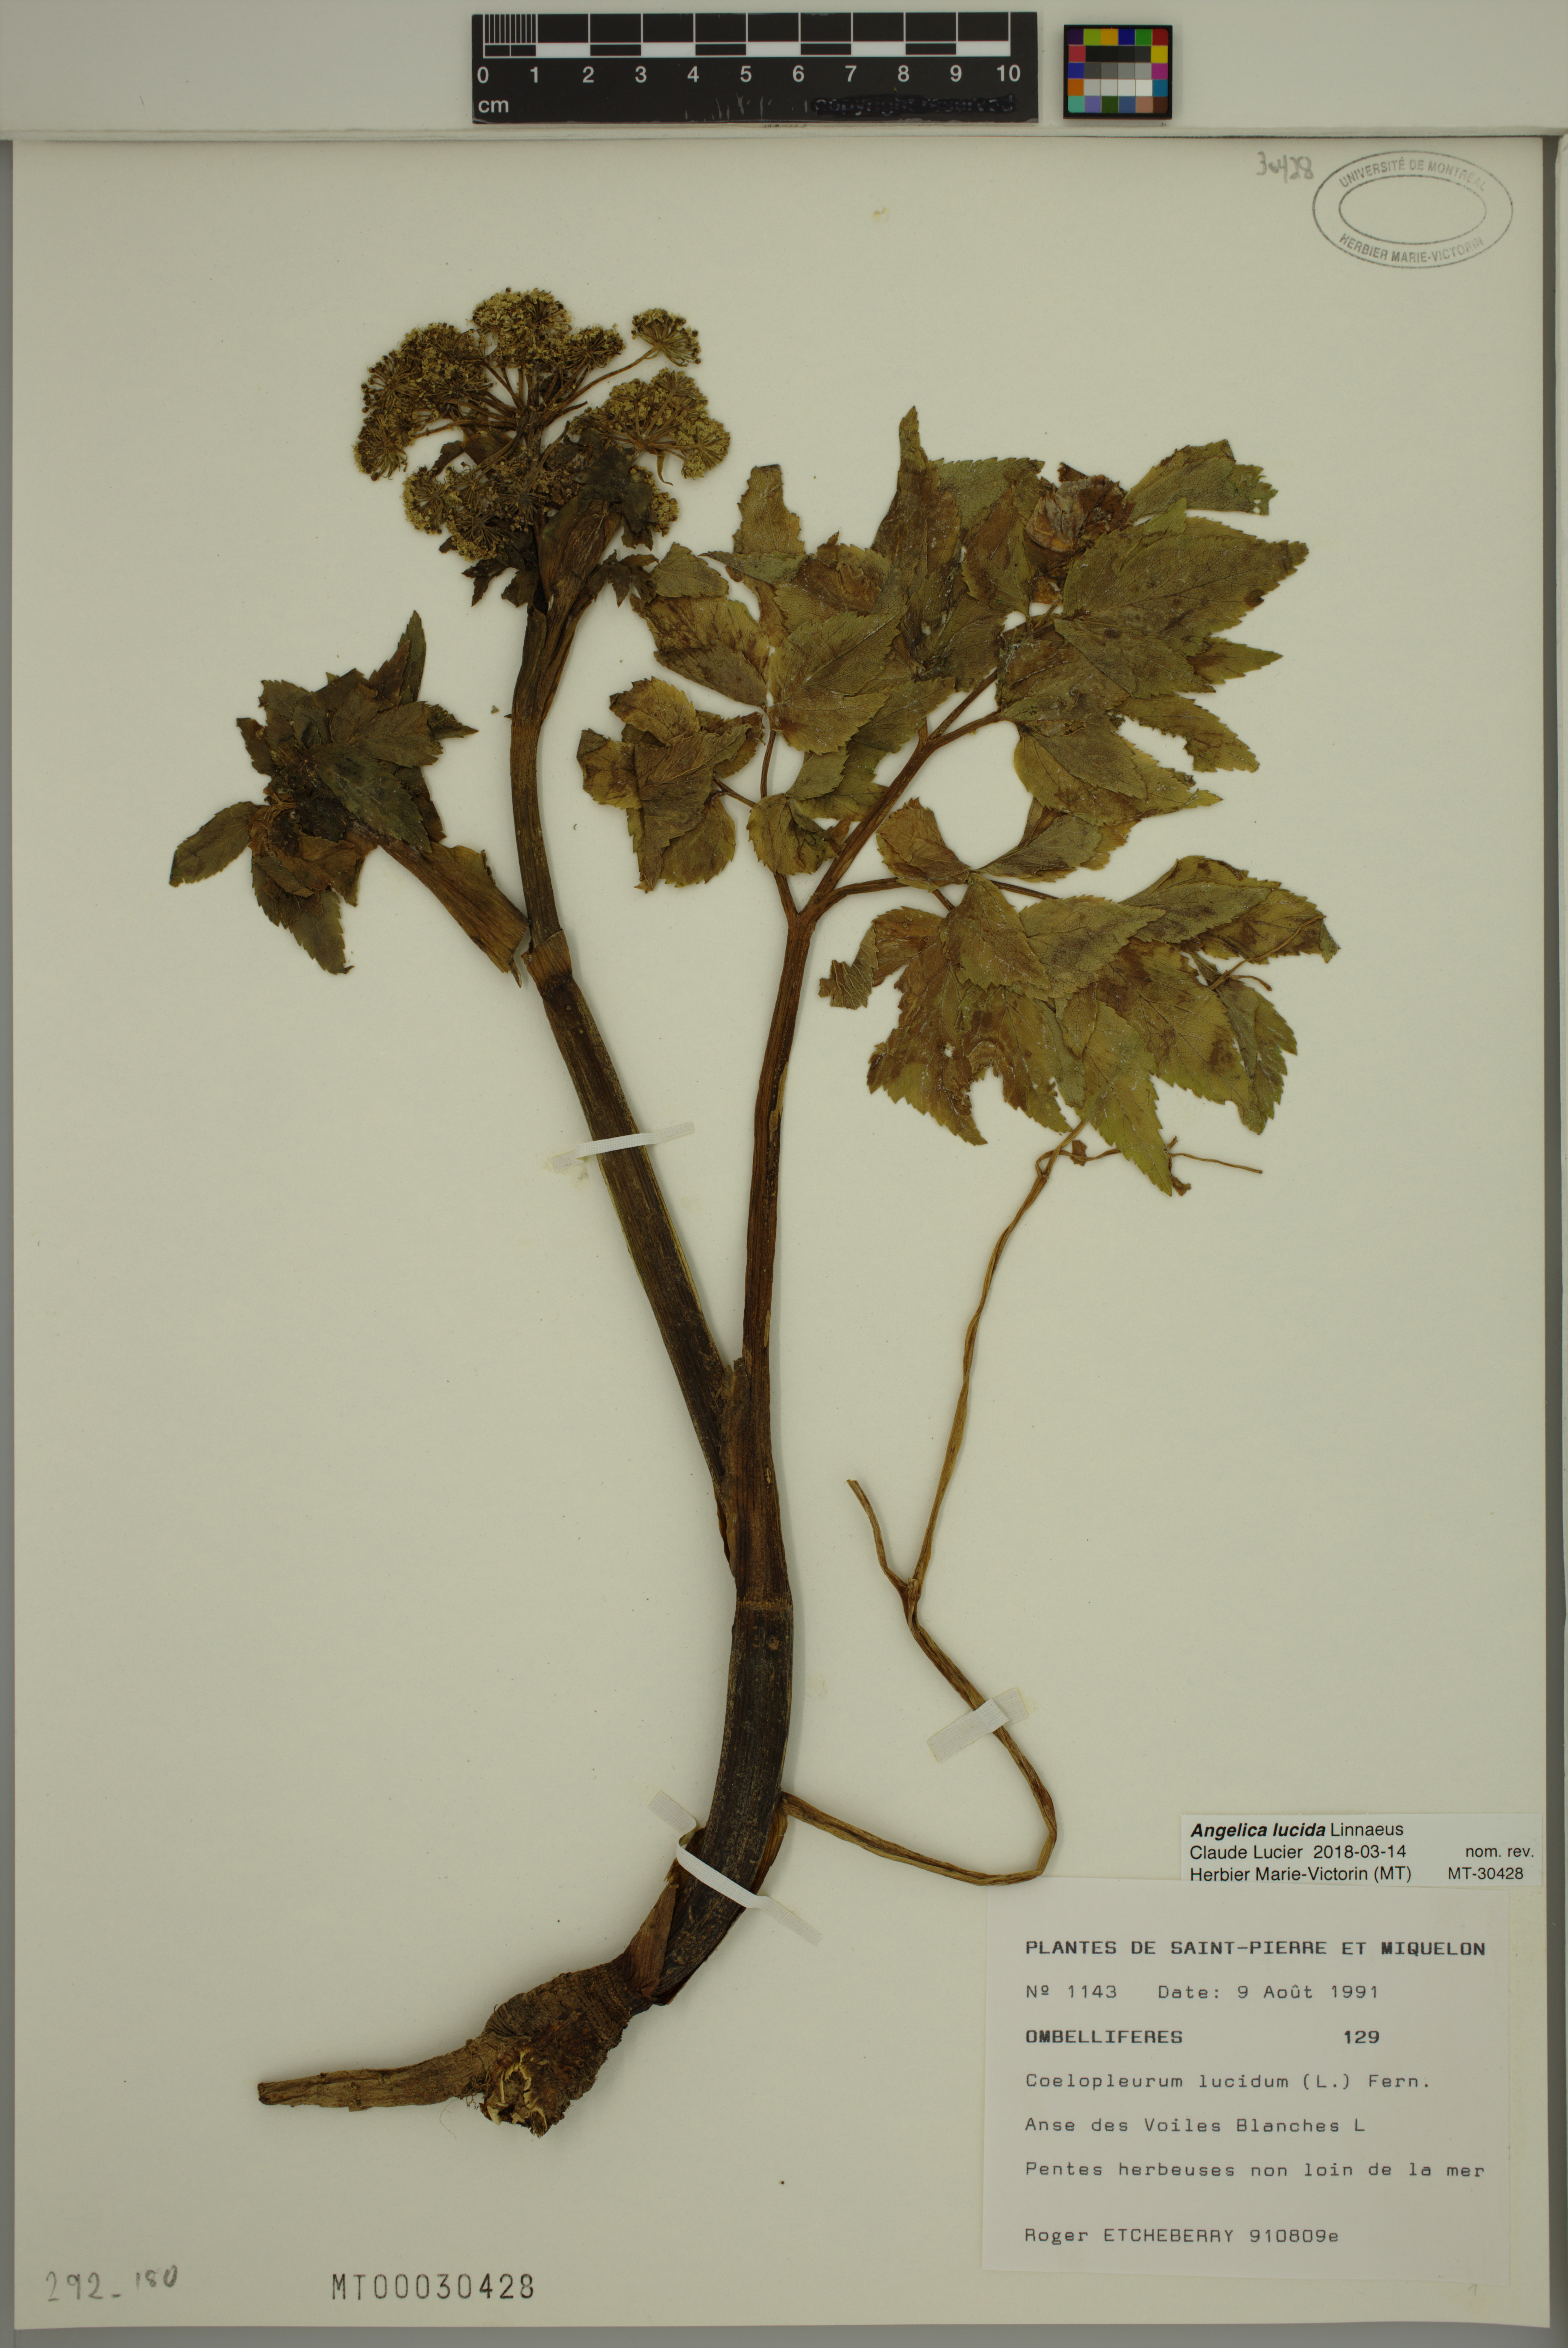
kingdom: Plantae
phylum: Tracheophyta
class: Magnoliopsida
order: Apiales
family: Apiaceae
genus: Angelica
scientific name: Angelica lucida
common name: Seabeach angelica
